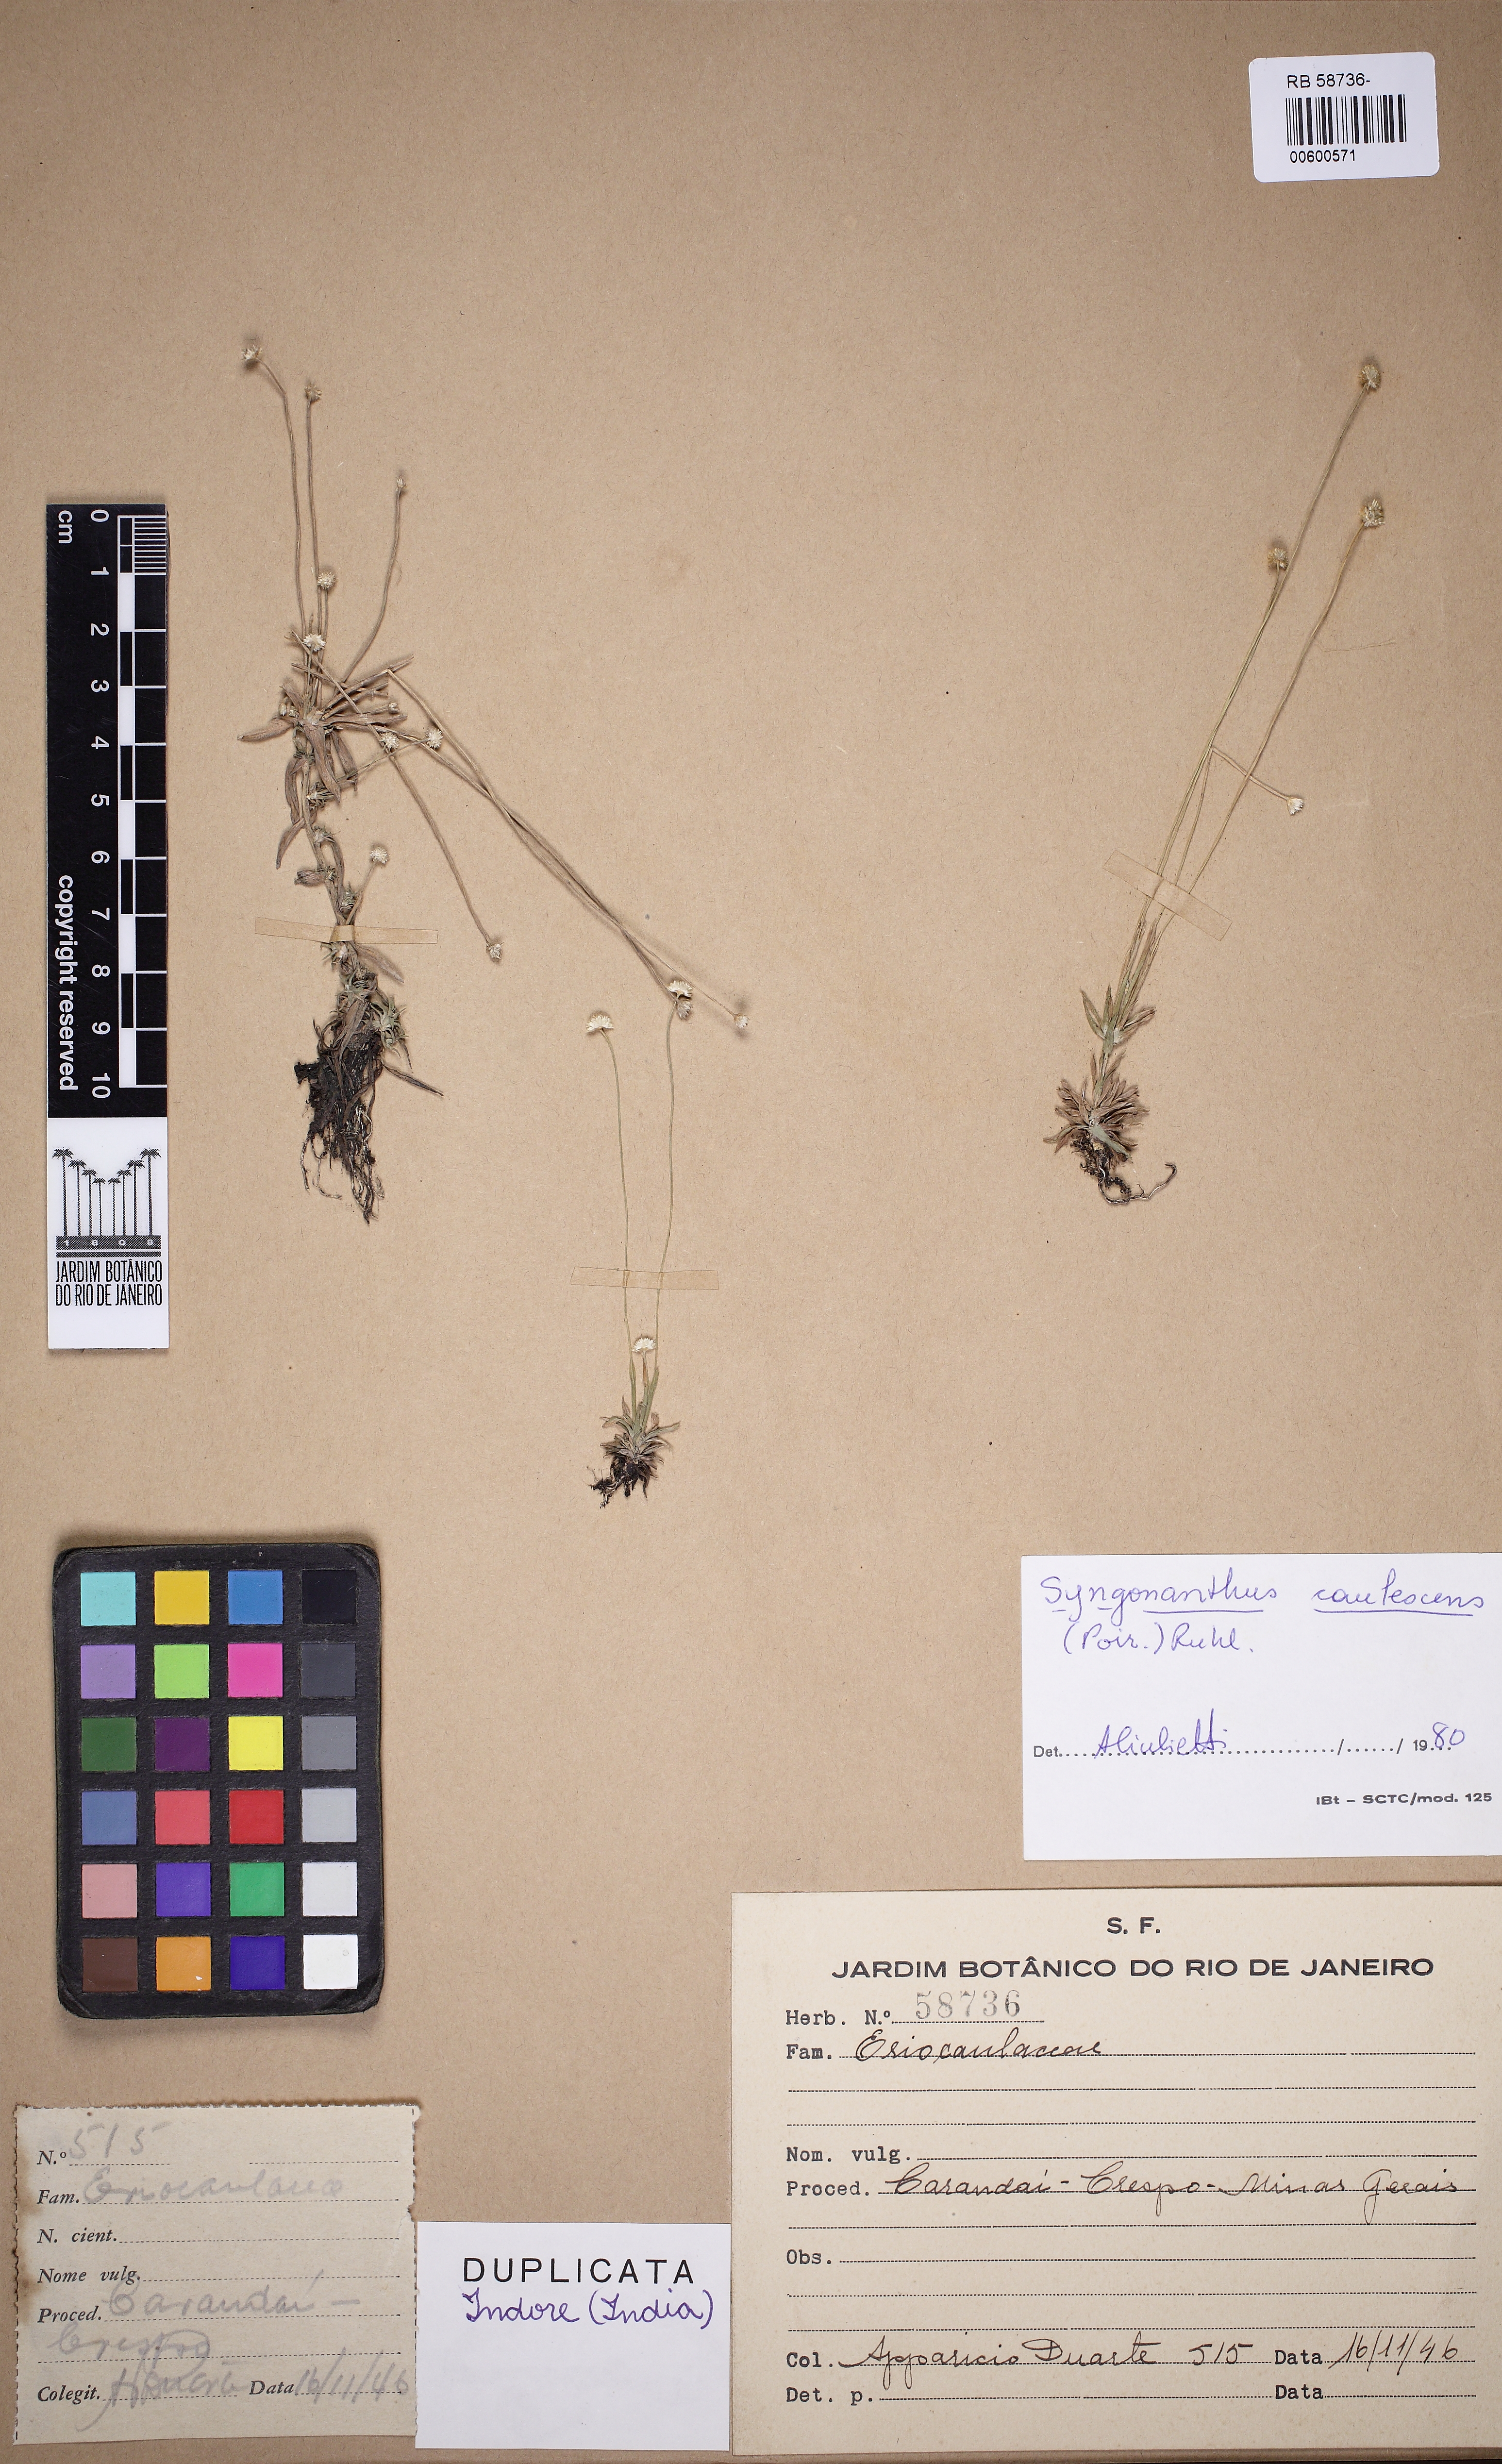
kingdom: Plantae
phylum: Tracheophyta
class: Liliopsida
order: Poales
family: Eriocaulaceae
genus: Syngonanthus
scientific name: Syngonanthus caulescens
